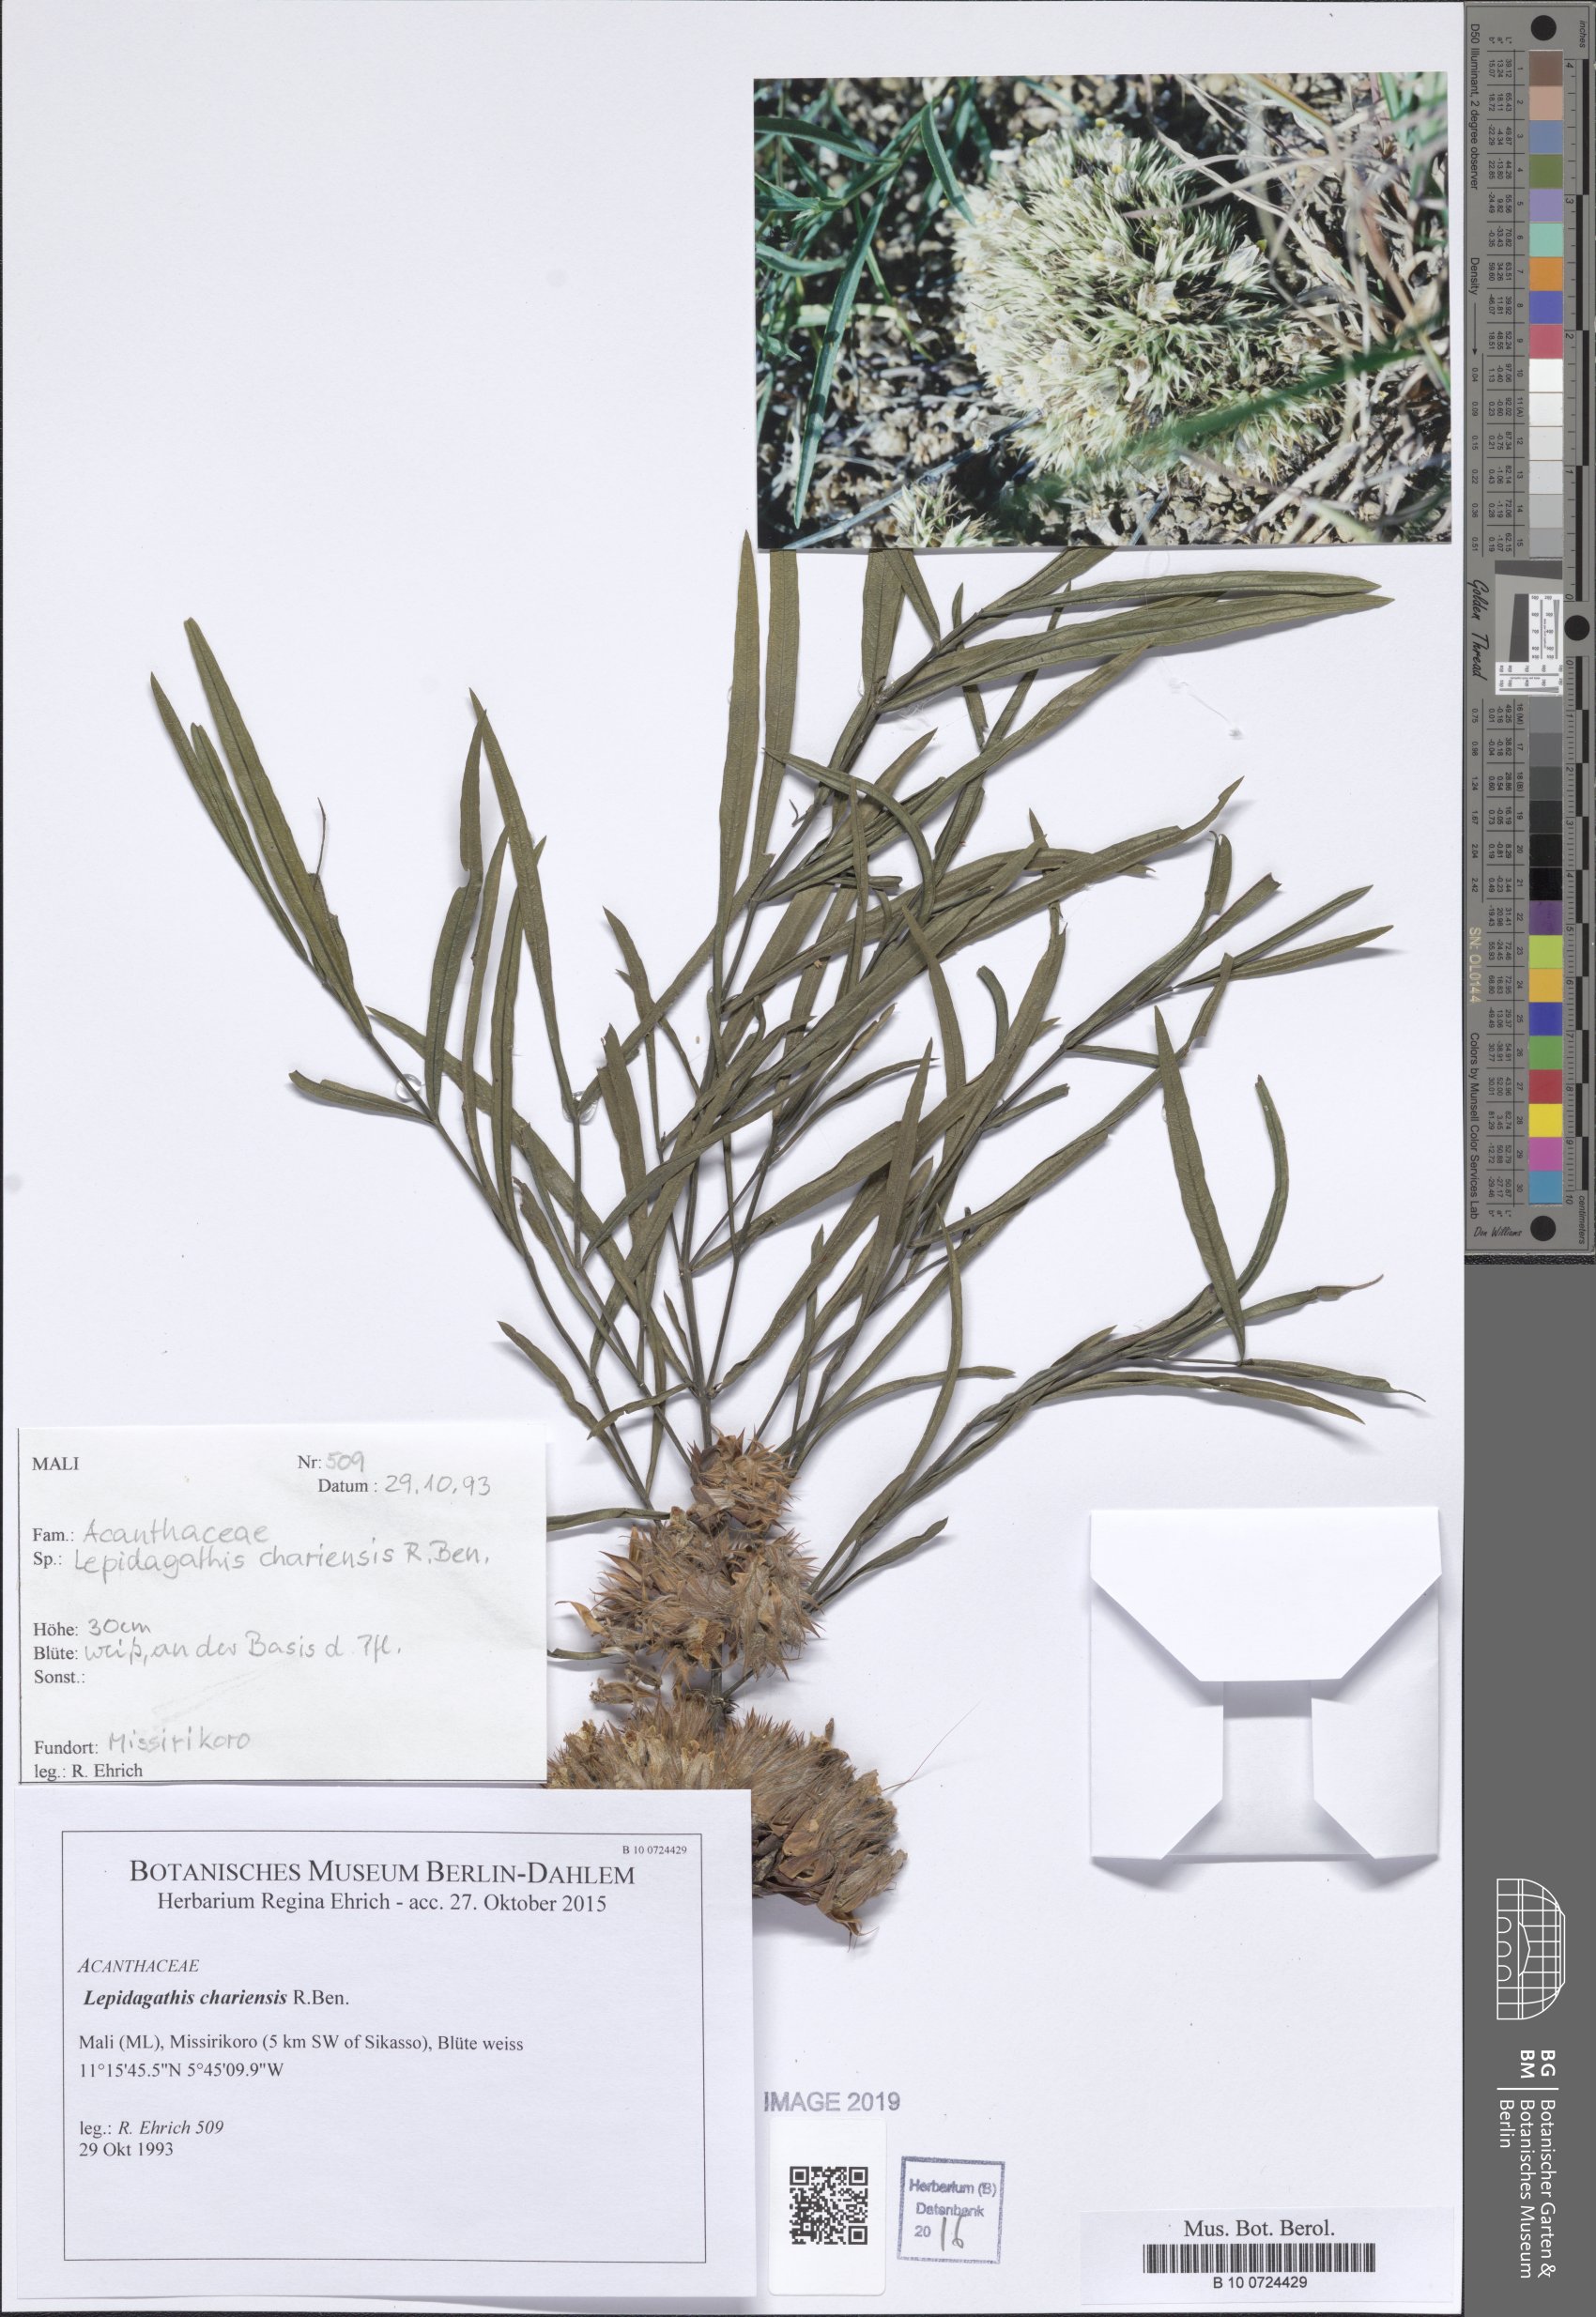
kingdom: Plantae
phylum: Tracheophyta
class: Magnoliopsida
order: Lamiales
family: Acanthaceae
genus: Lepidagathis
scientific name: Lepidagathis collina
